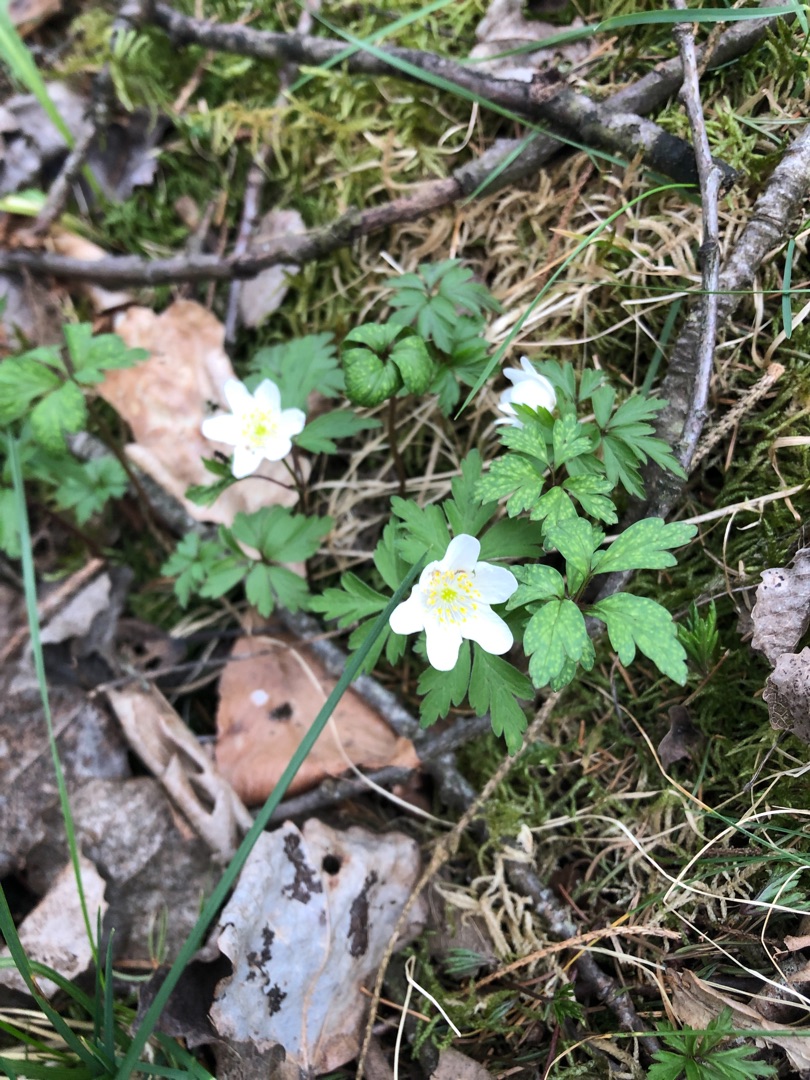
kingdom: Plantae
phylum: Tracheophyta
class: Magnoliopsida
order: Ranunculales
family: Ranunculaceae
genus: Anemone
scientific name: Anemone nemorosa
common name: Hvid anemone
